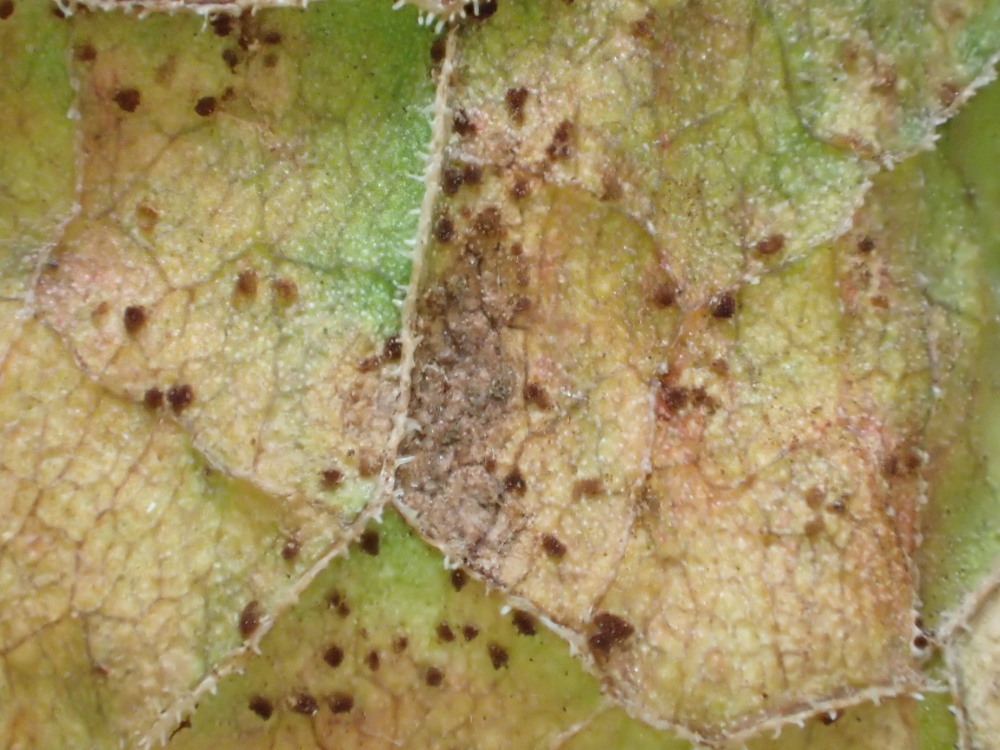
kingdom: Fungi
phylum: Basidiomycota
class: Pucciniomycetes
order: Pucciniales
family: Pucciniaceae
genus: Uromyces
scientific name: Uromyces rumicis
